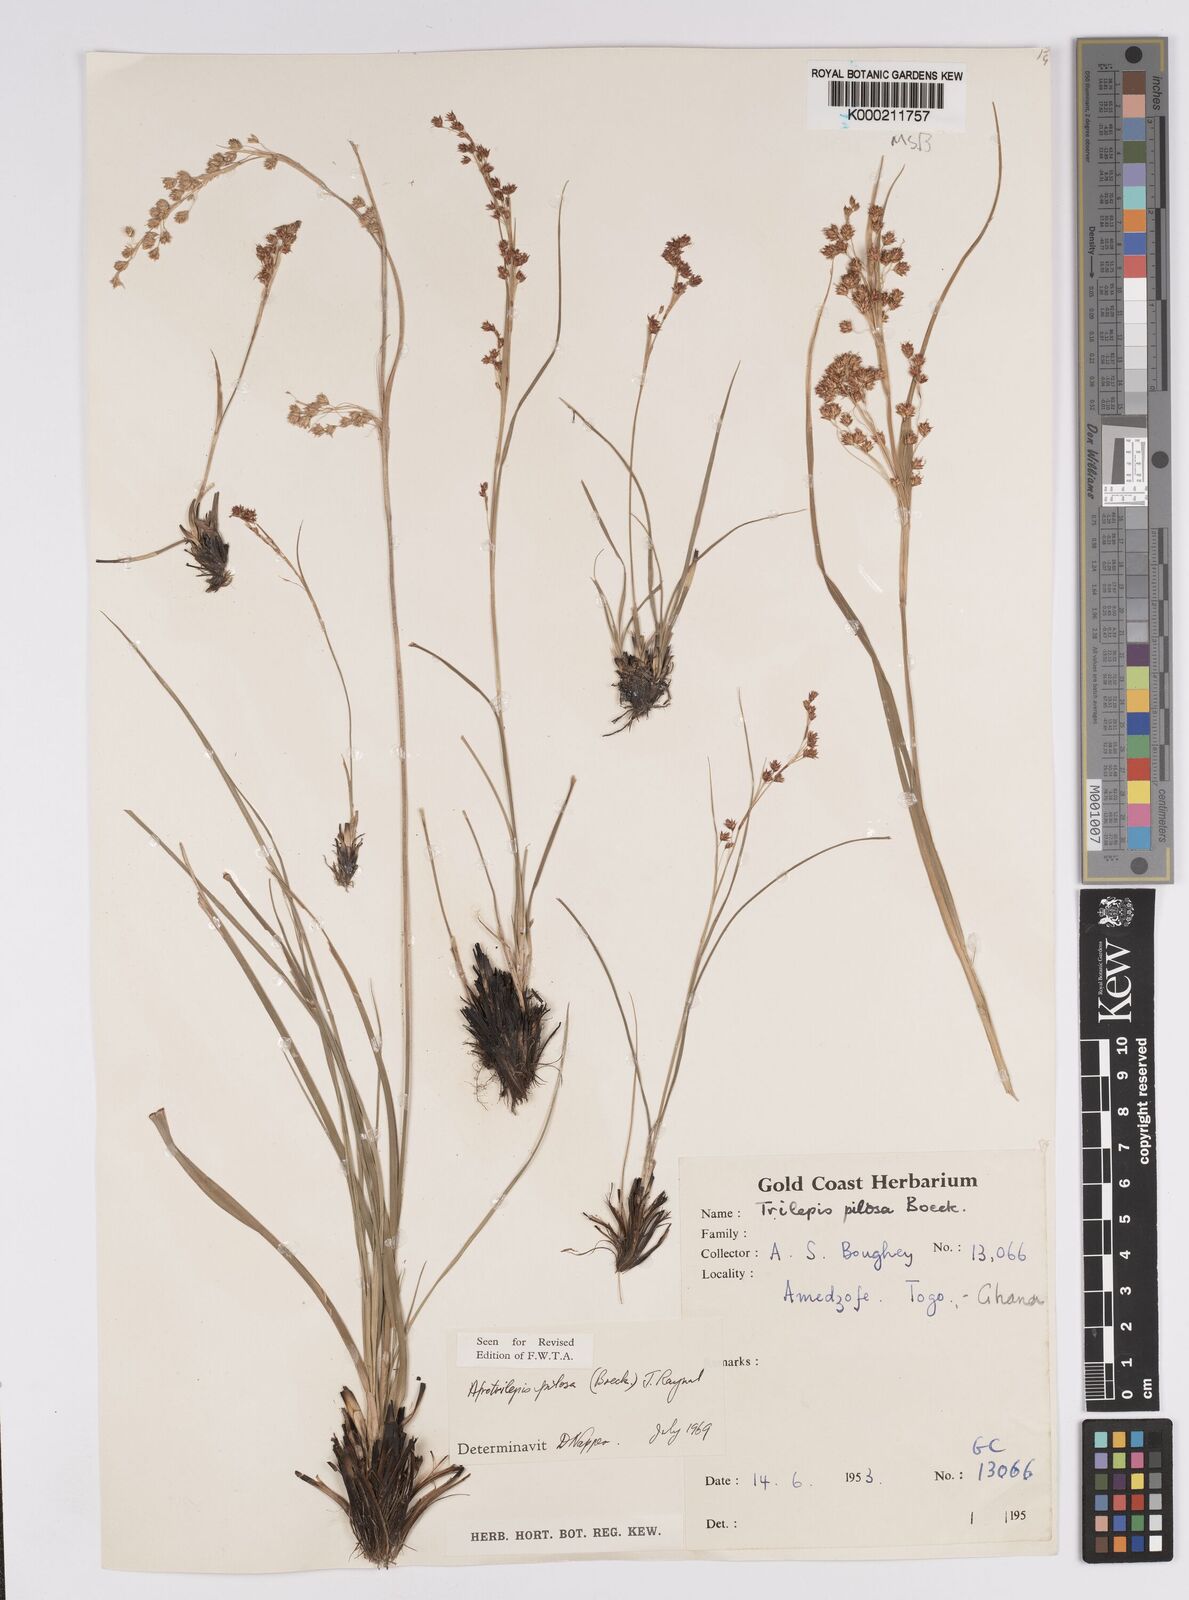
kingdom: Plantae
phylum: Tracheophyta
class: Liliopsida
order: Poales
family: Cyperaceae
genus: Afrotrilepis
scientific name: Afrotrilepis pilosa
